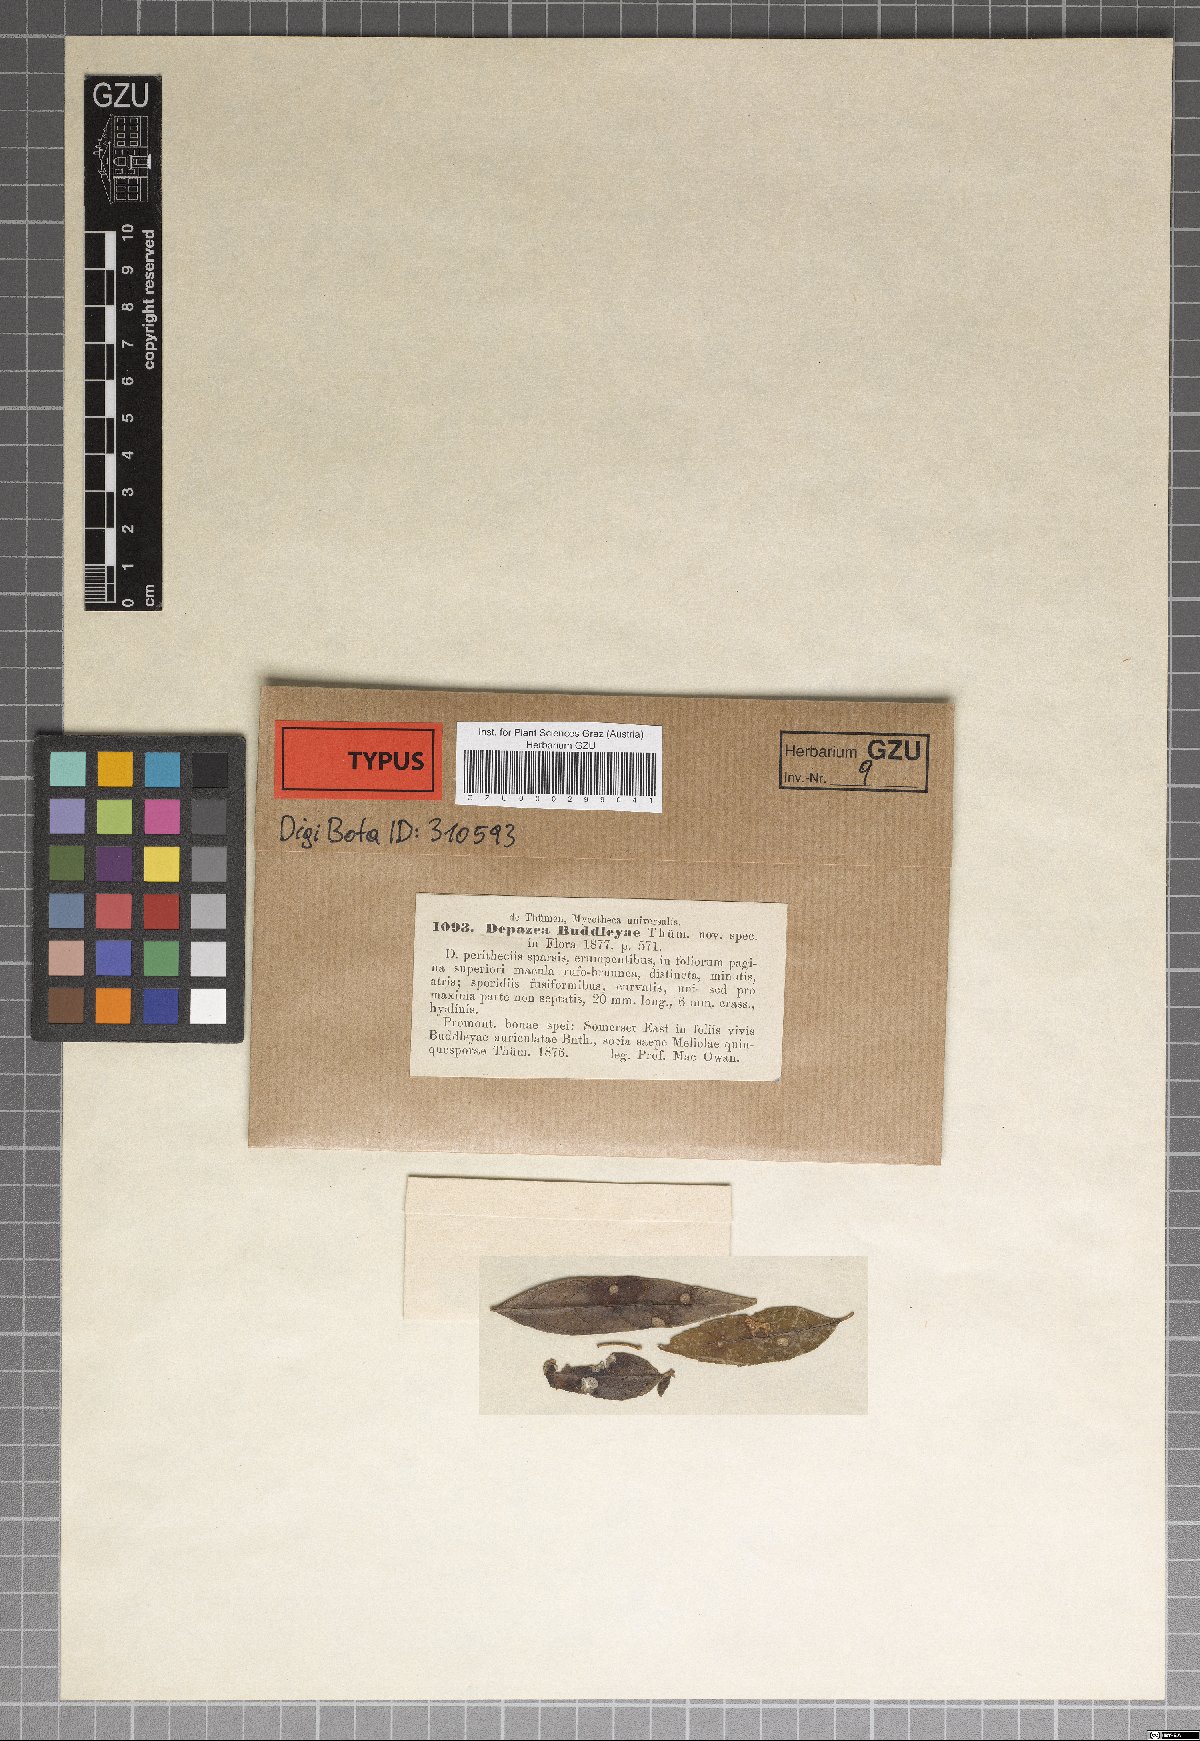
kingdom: Fungi
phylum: Ascomycota
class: Sordariomycetes
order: Diaporthales
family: Gnomoniaceae
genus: Depazea
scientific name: Depazea
